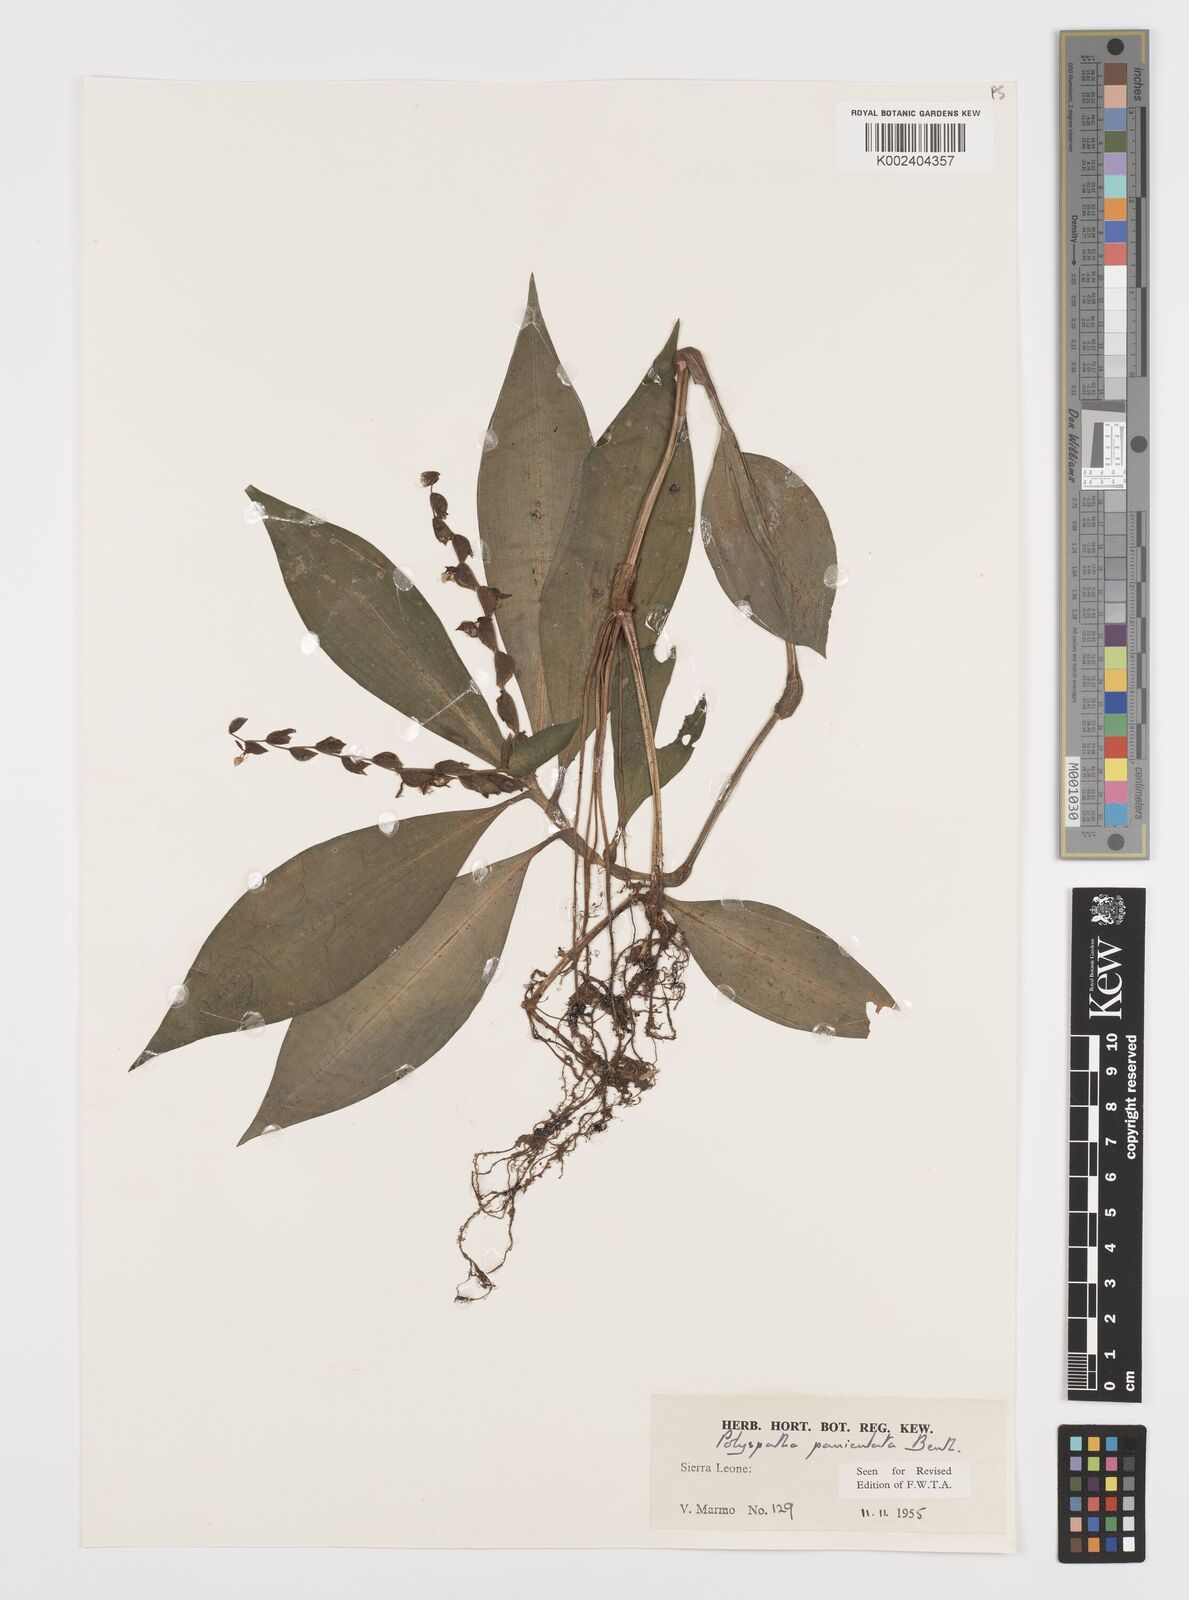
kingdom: Plantae
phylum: Tracheophyta
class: Liliopsida
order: Commelinales
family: Commelinaceae
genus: Polyspatha
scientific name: Polyspatha paniculata
